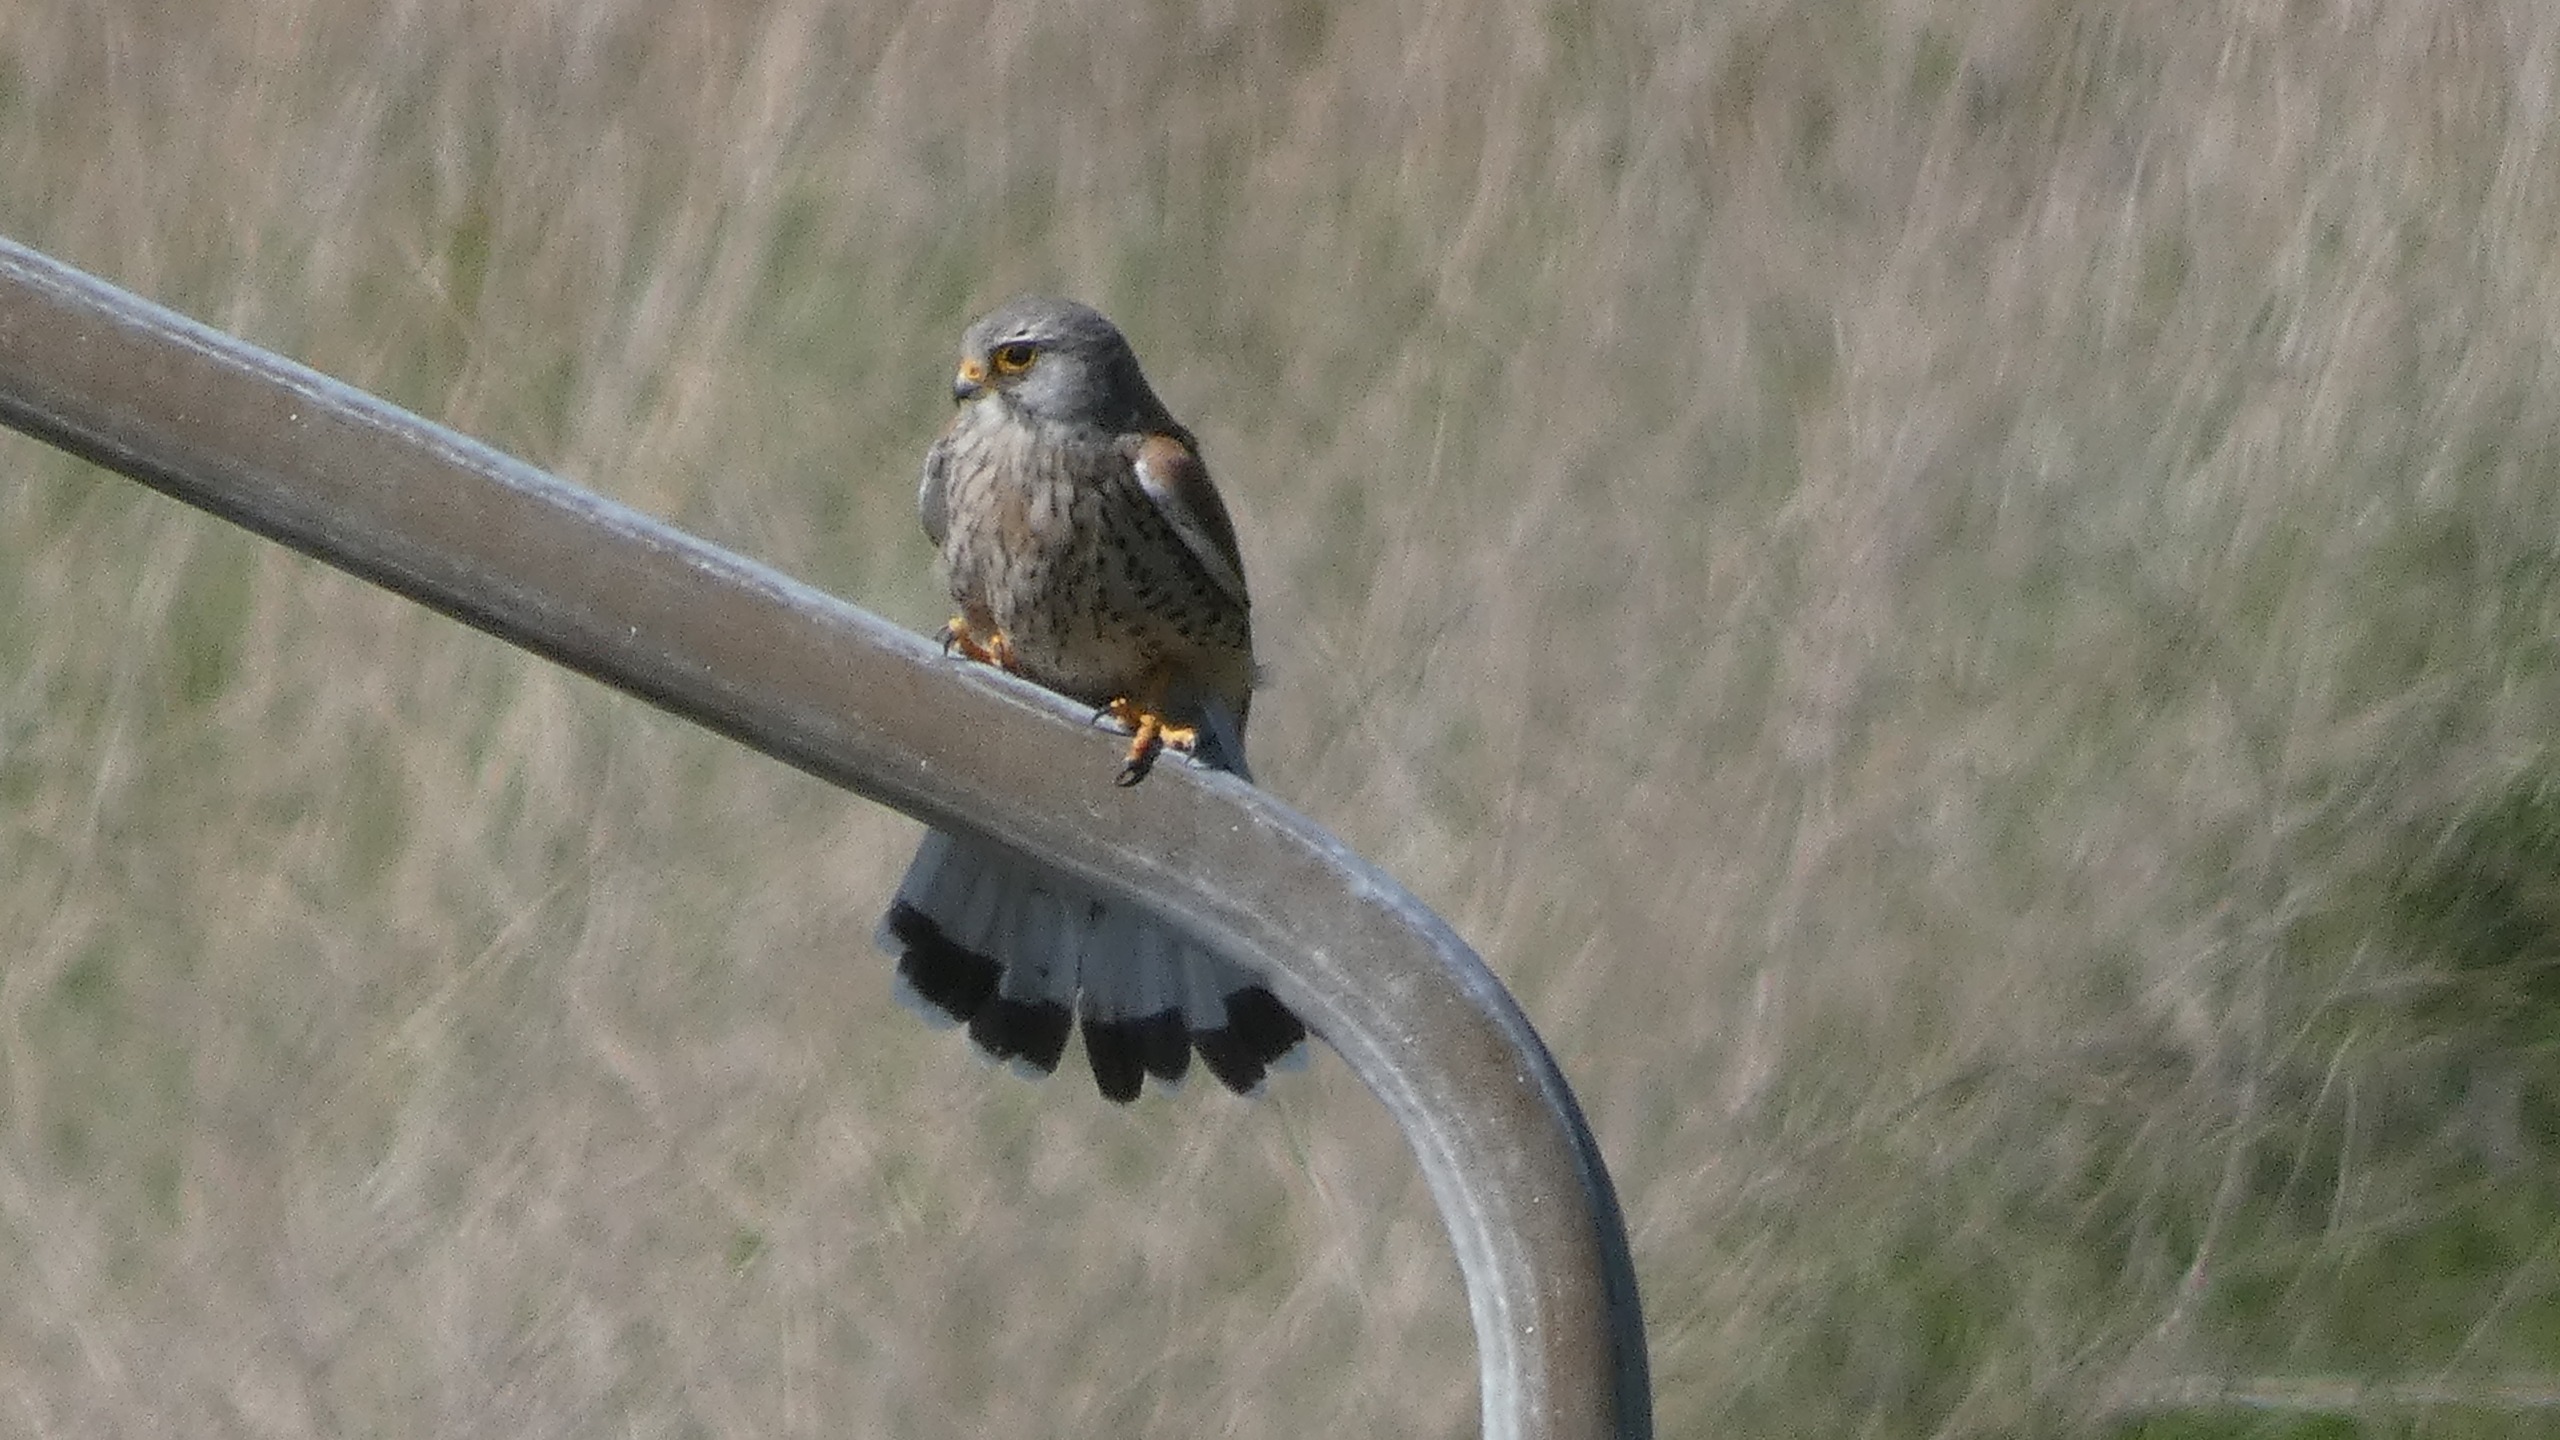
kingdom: Animalia
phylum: Chordata
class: Aves
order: Falconiformes
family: Falconidae
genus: Falco
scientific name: Falco tinnunculus
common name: Tårnfalk
